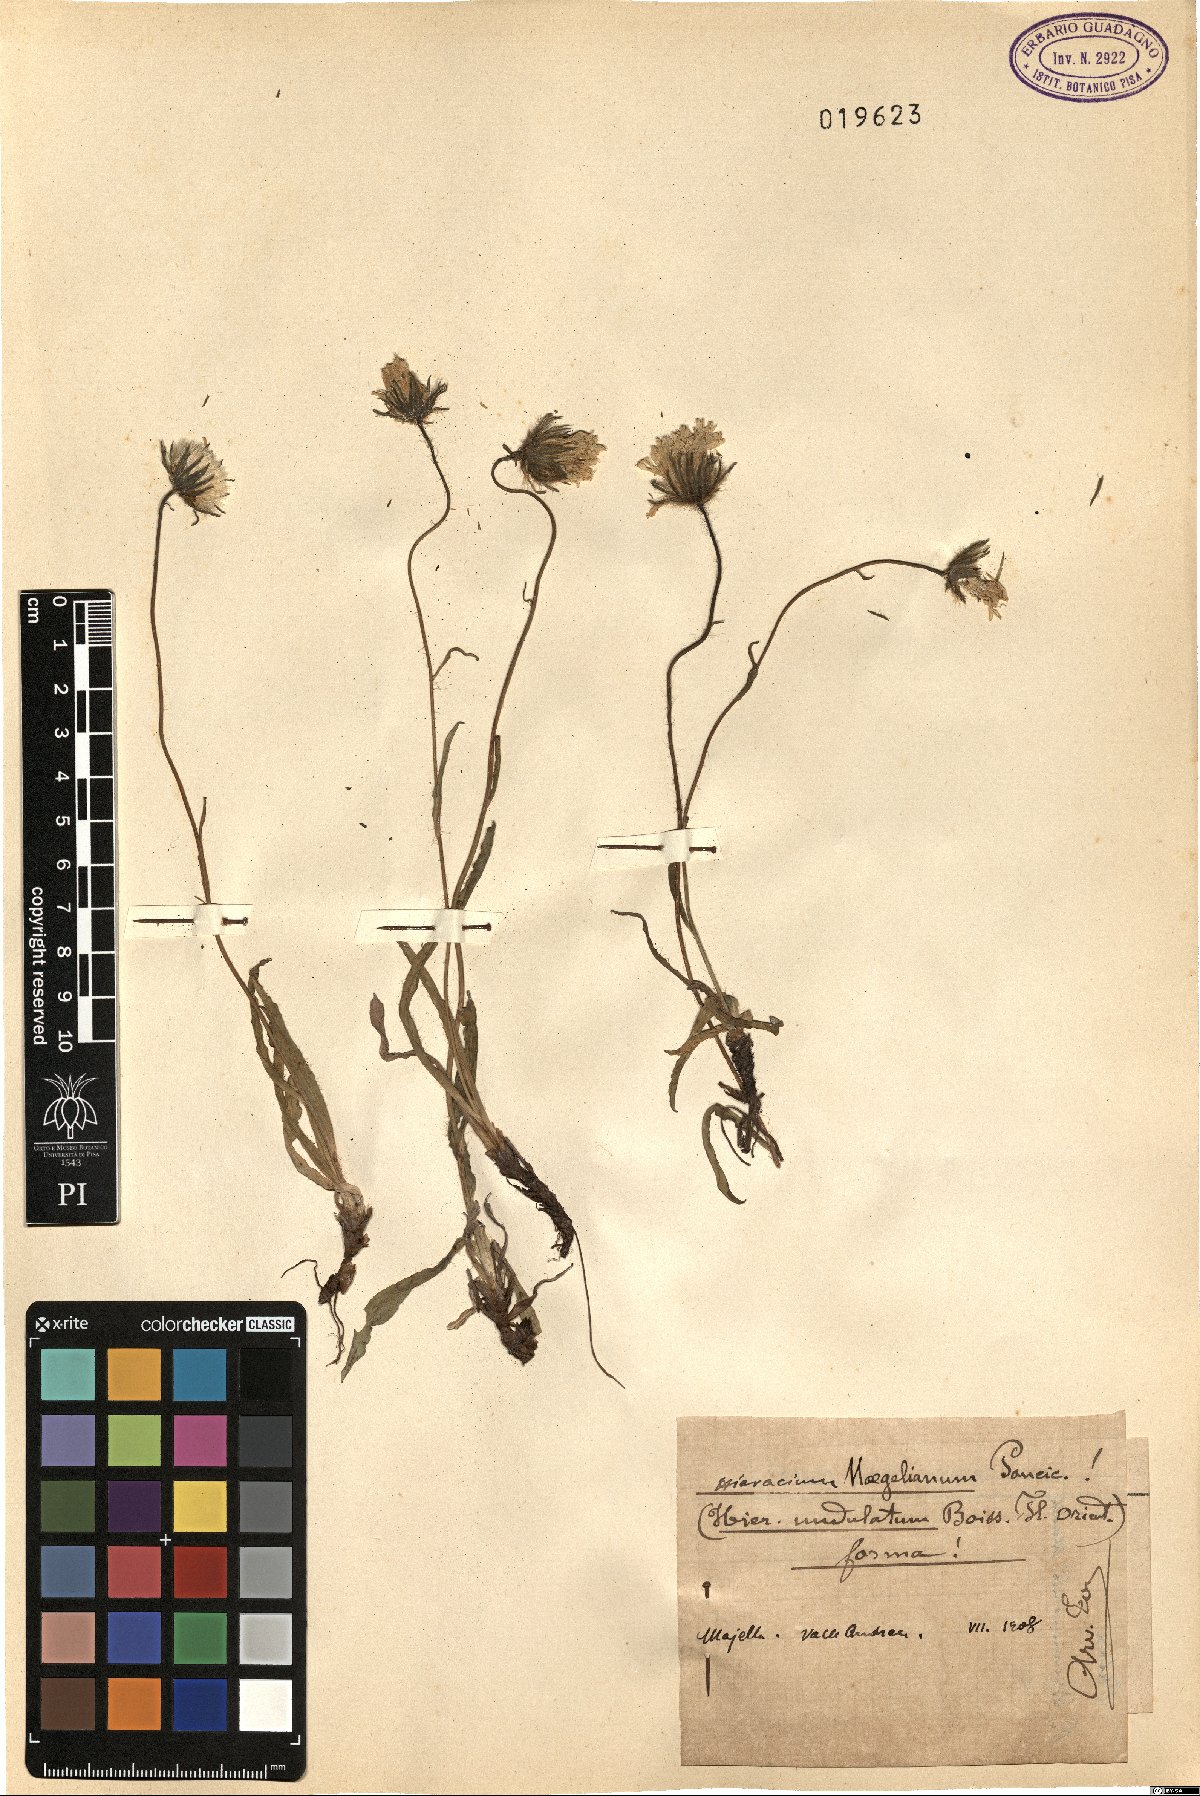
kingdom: Plantae
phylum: Tracheophyta
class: Magnoliopsida
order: Asterales
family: Asteraceae
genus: Hieracium
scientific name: Hieracium naegelianum
